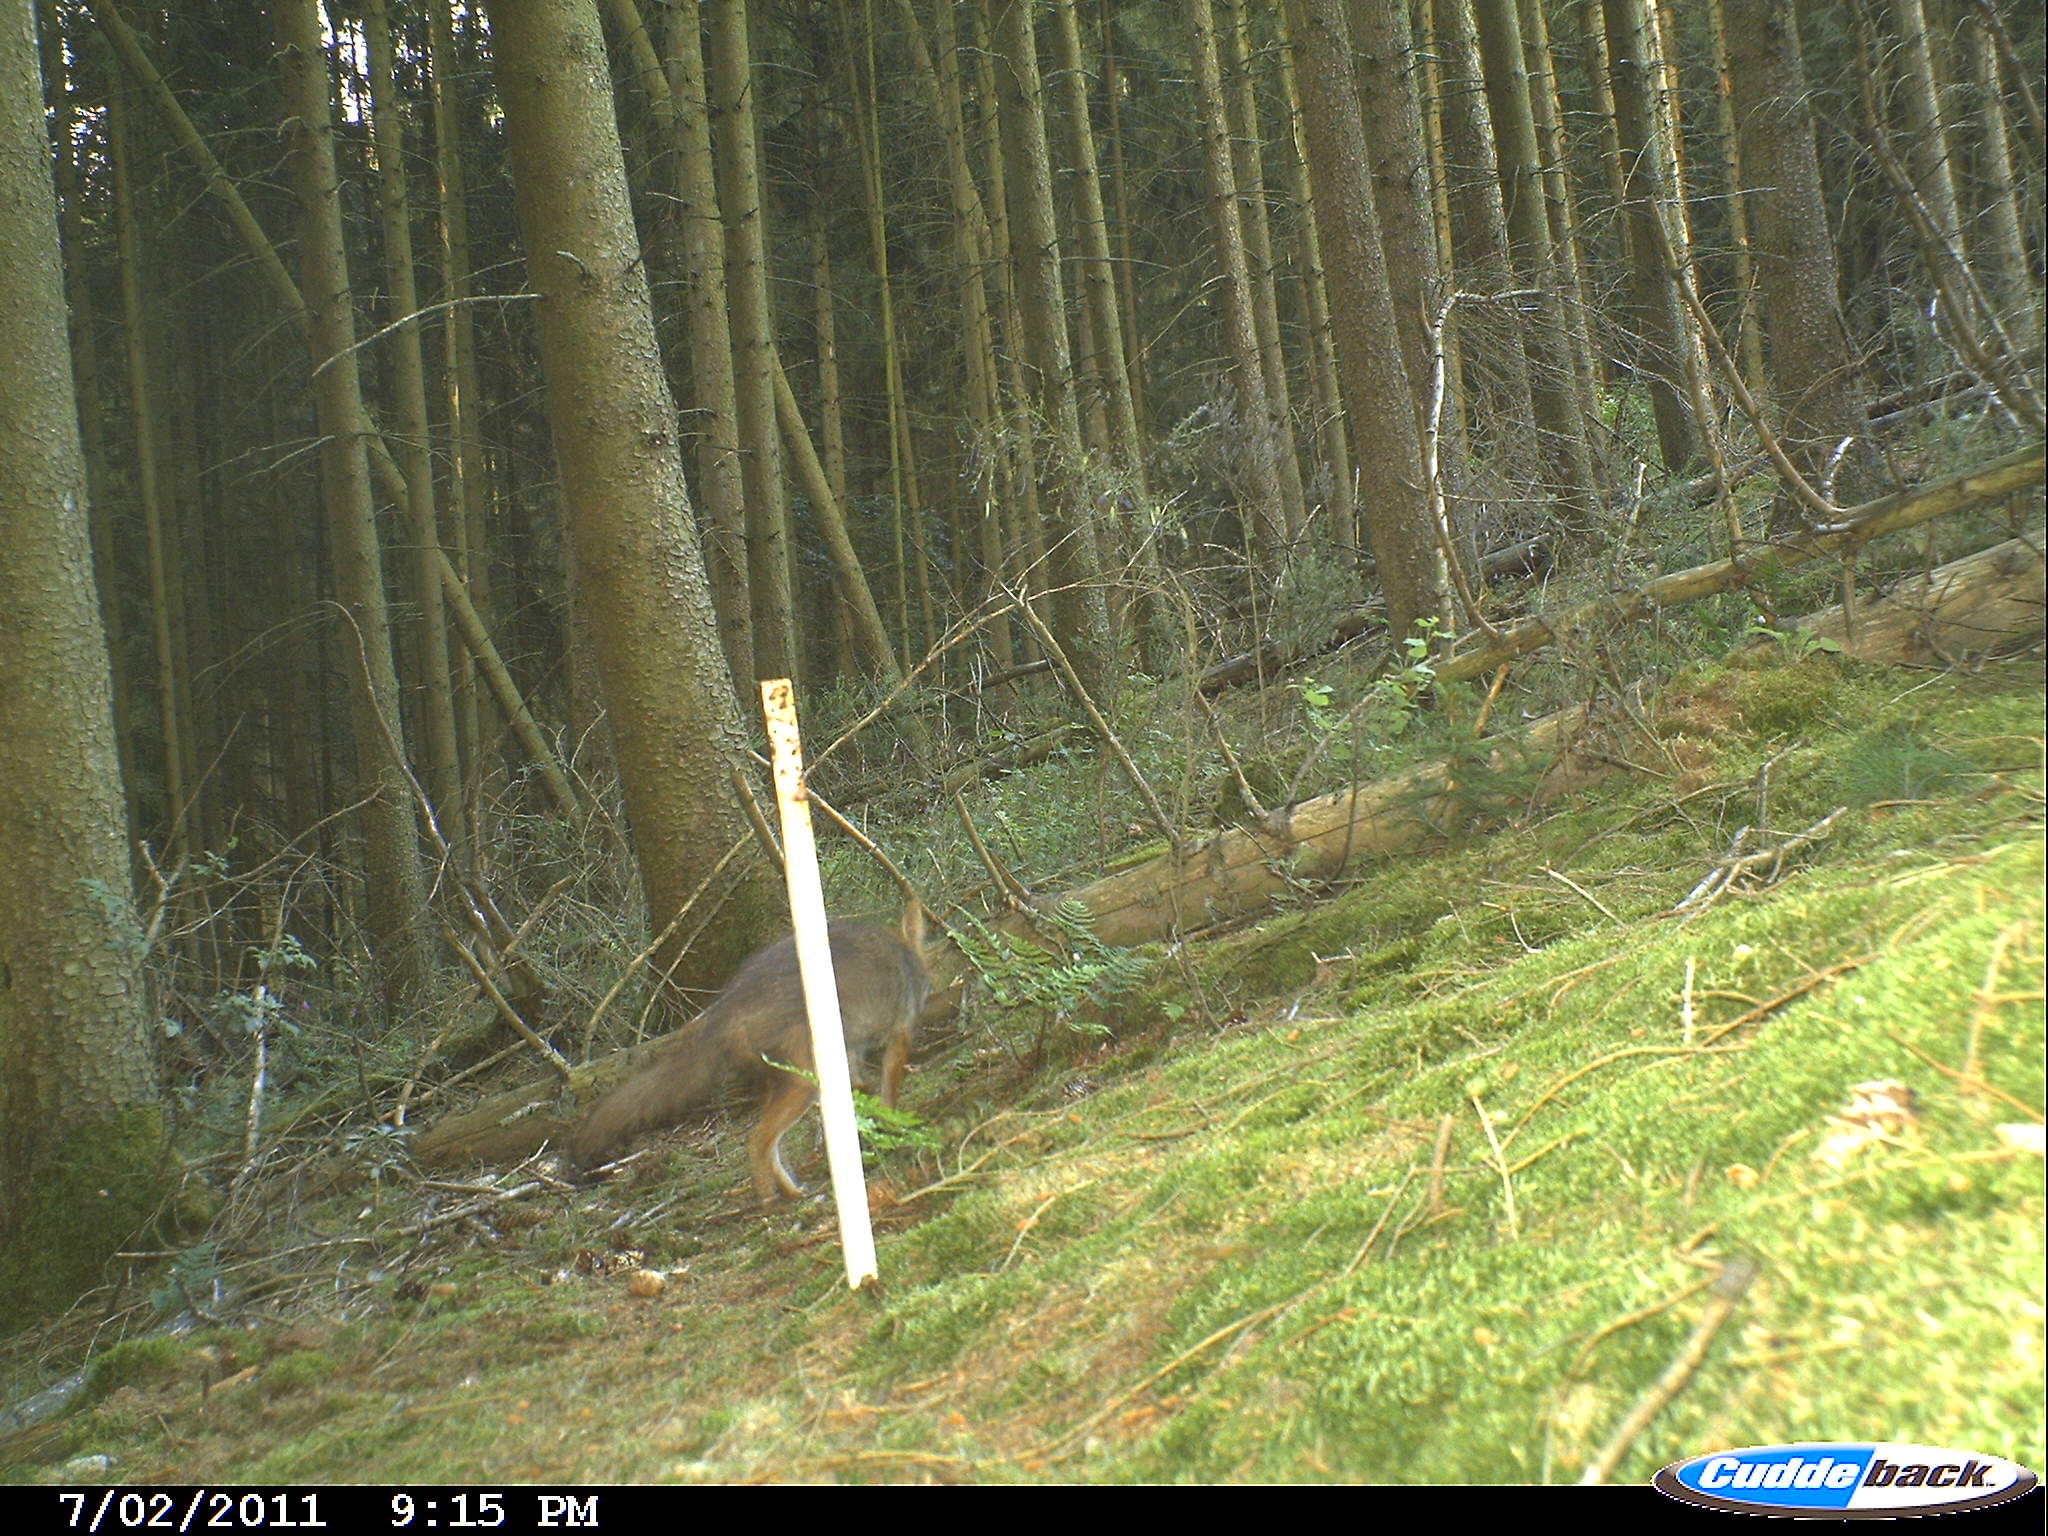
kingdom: Animalia
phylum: Chordata
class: Mammalia
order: Carnivora
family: Canidae
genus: Vulpes
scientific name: Vulpes vulpes
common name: Red fox
